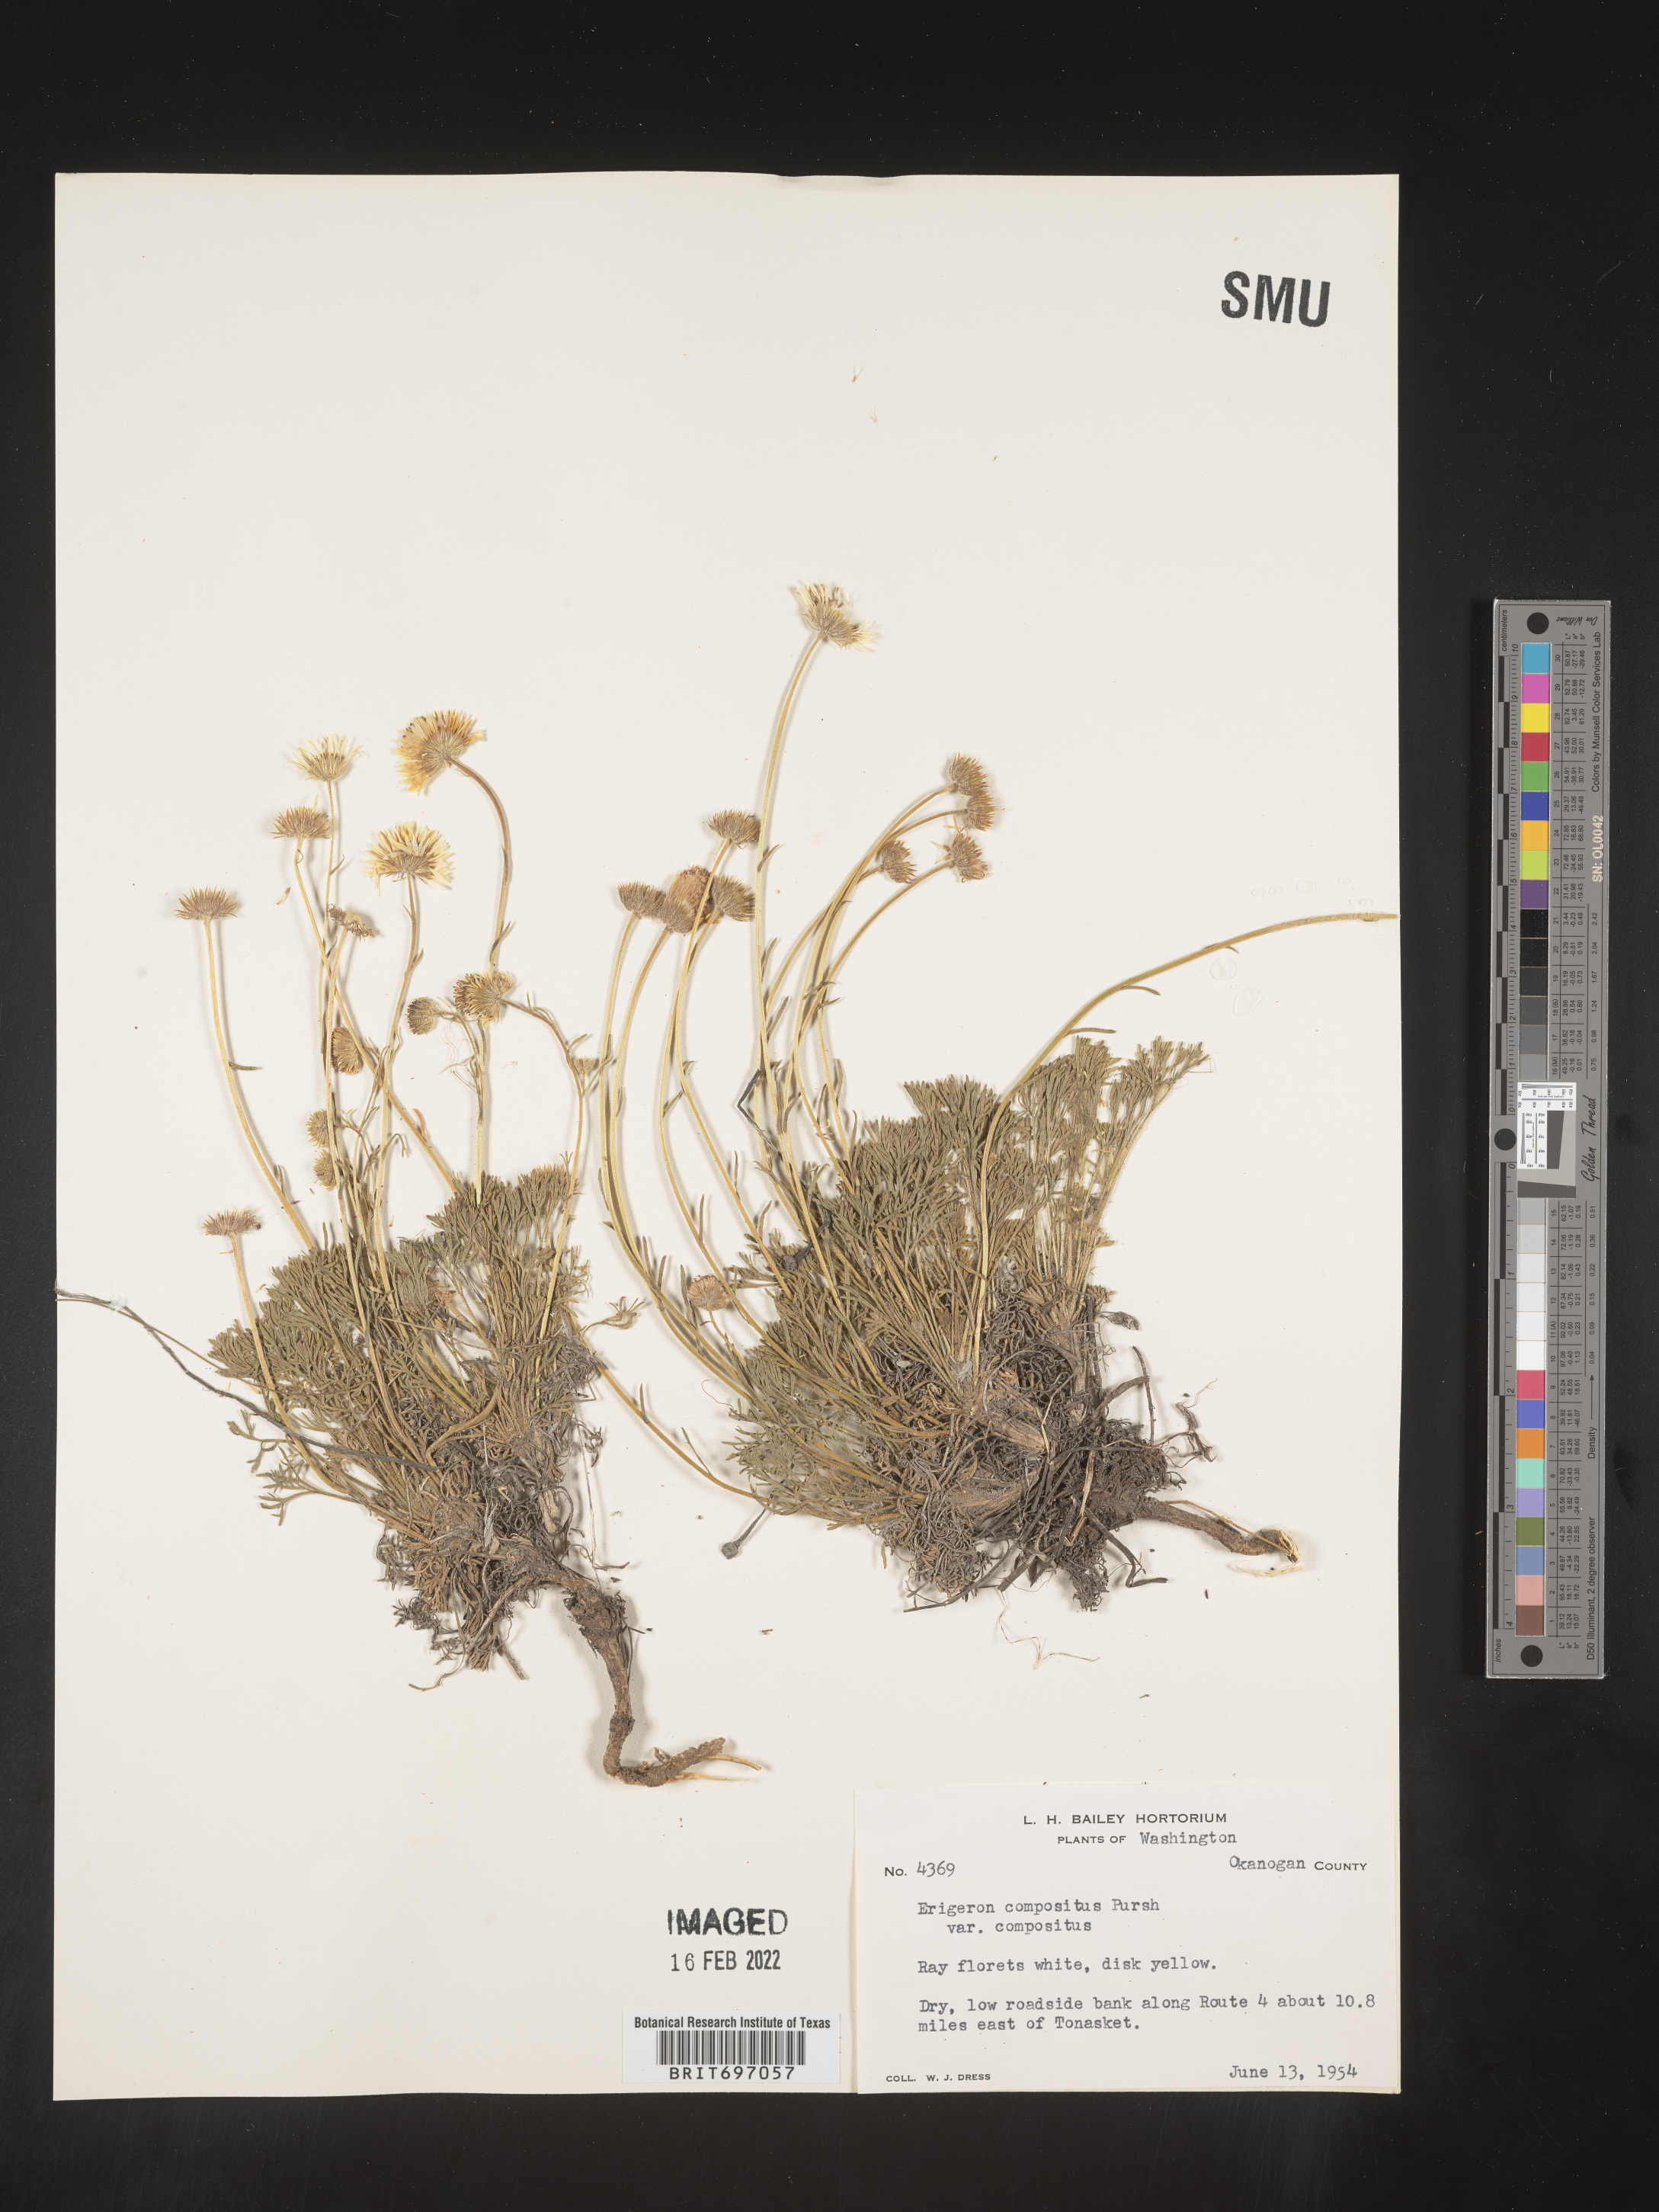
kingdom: Plantae
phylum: Tracheophyta
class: Magnoliopsida
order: Asterales
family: Asteraceae
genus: Erigeron
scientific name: Erigeron compositus
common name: Dwarf mountain fleabane
